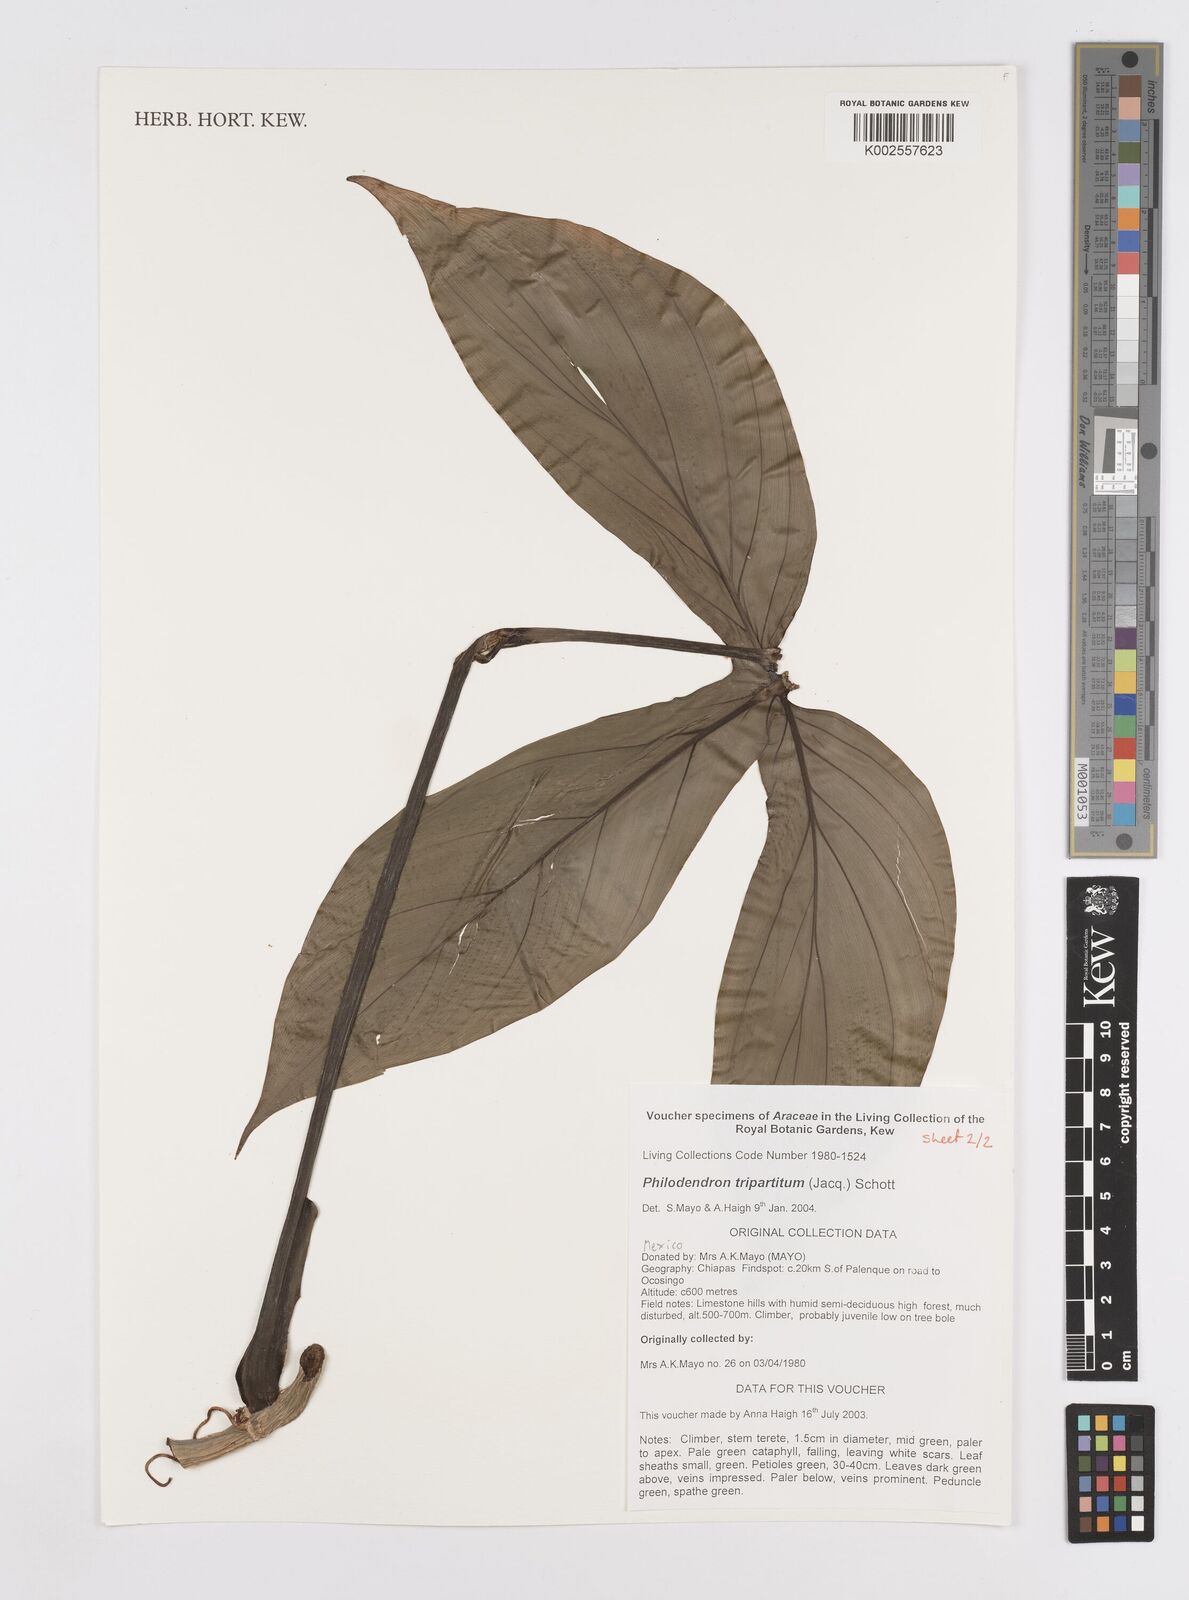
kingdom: Plantae
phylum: Tracheophyta
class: Liliopsida
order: Alismatales
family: Araceae
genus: Philodendron
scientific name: Philodendron tripartitum
